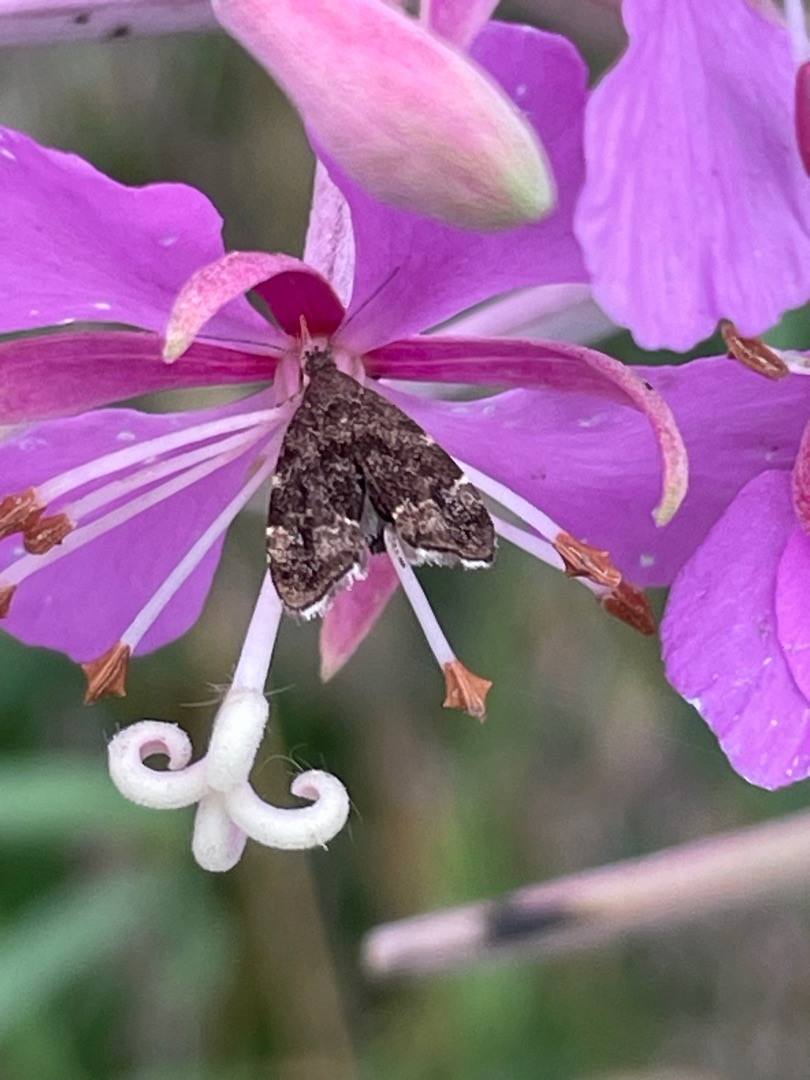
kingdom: Animalia
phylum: Arthropoda
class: Insecta
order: Lepidoptera
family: Choreutidae
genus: Anthophila
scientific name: Anthophila fabriciana
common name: Bredvinget nældevikler
